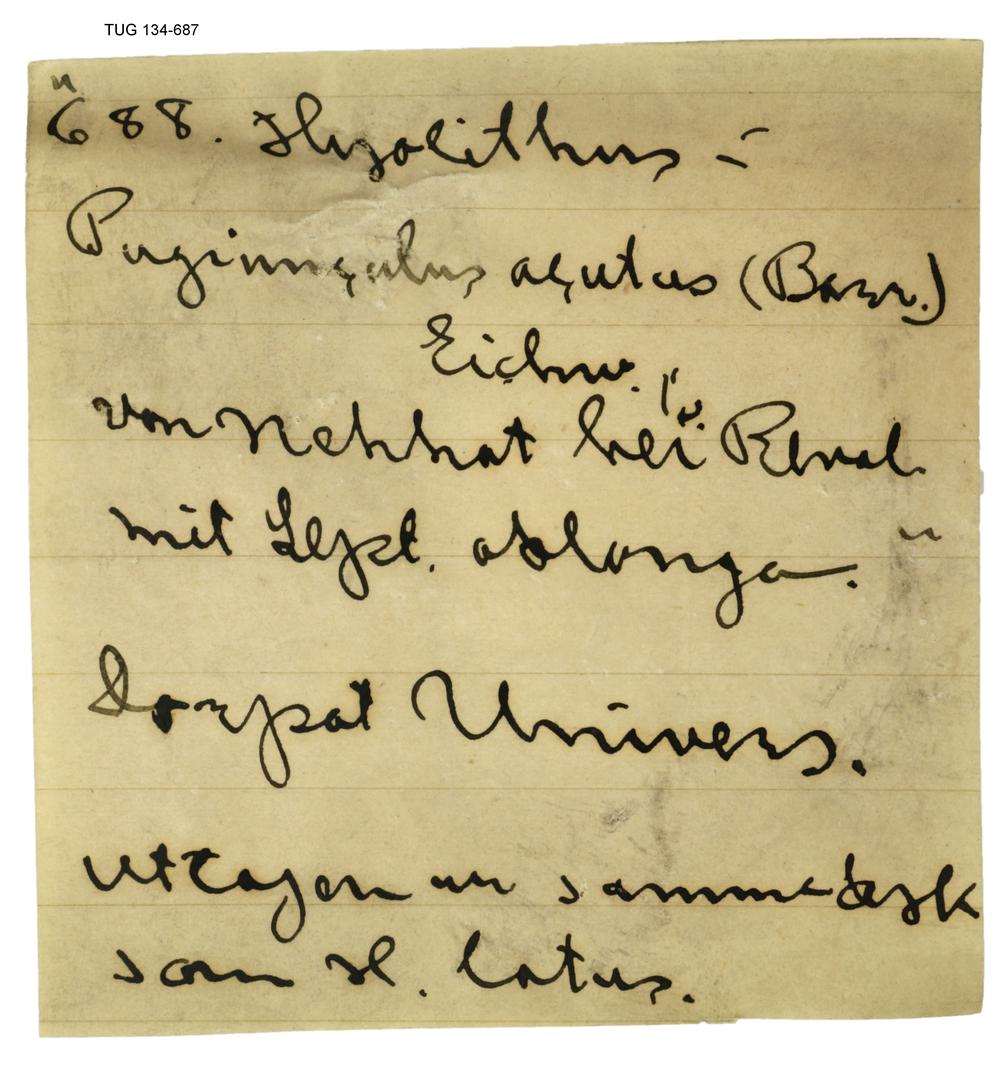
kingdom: Animalia
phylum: Annelida
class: Polychaeta
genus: Hyolithes
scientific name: Hyolithes acutus
